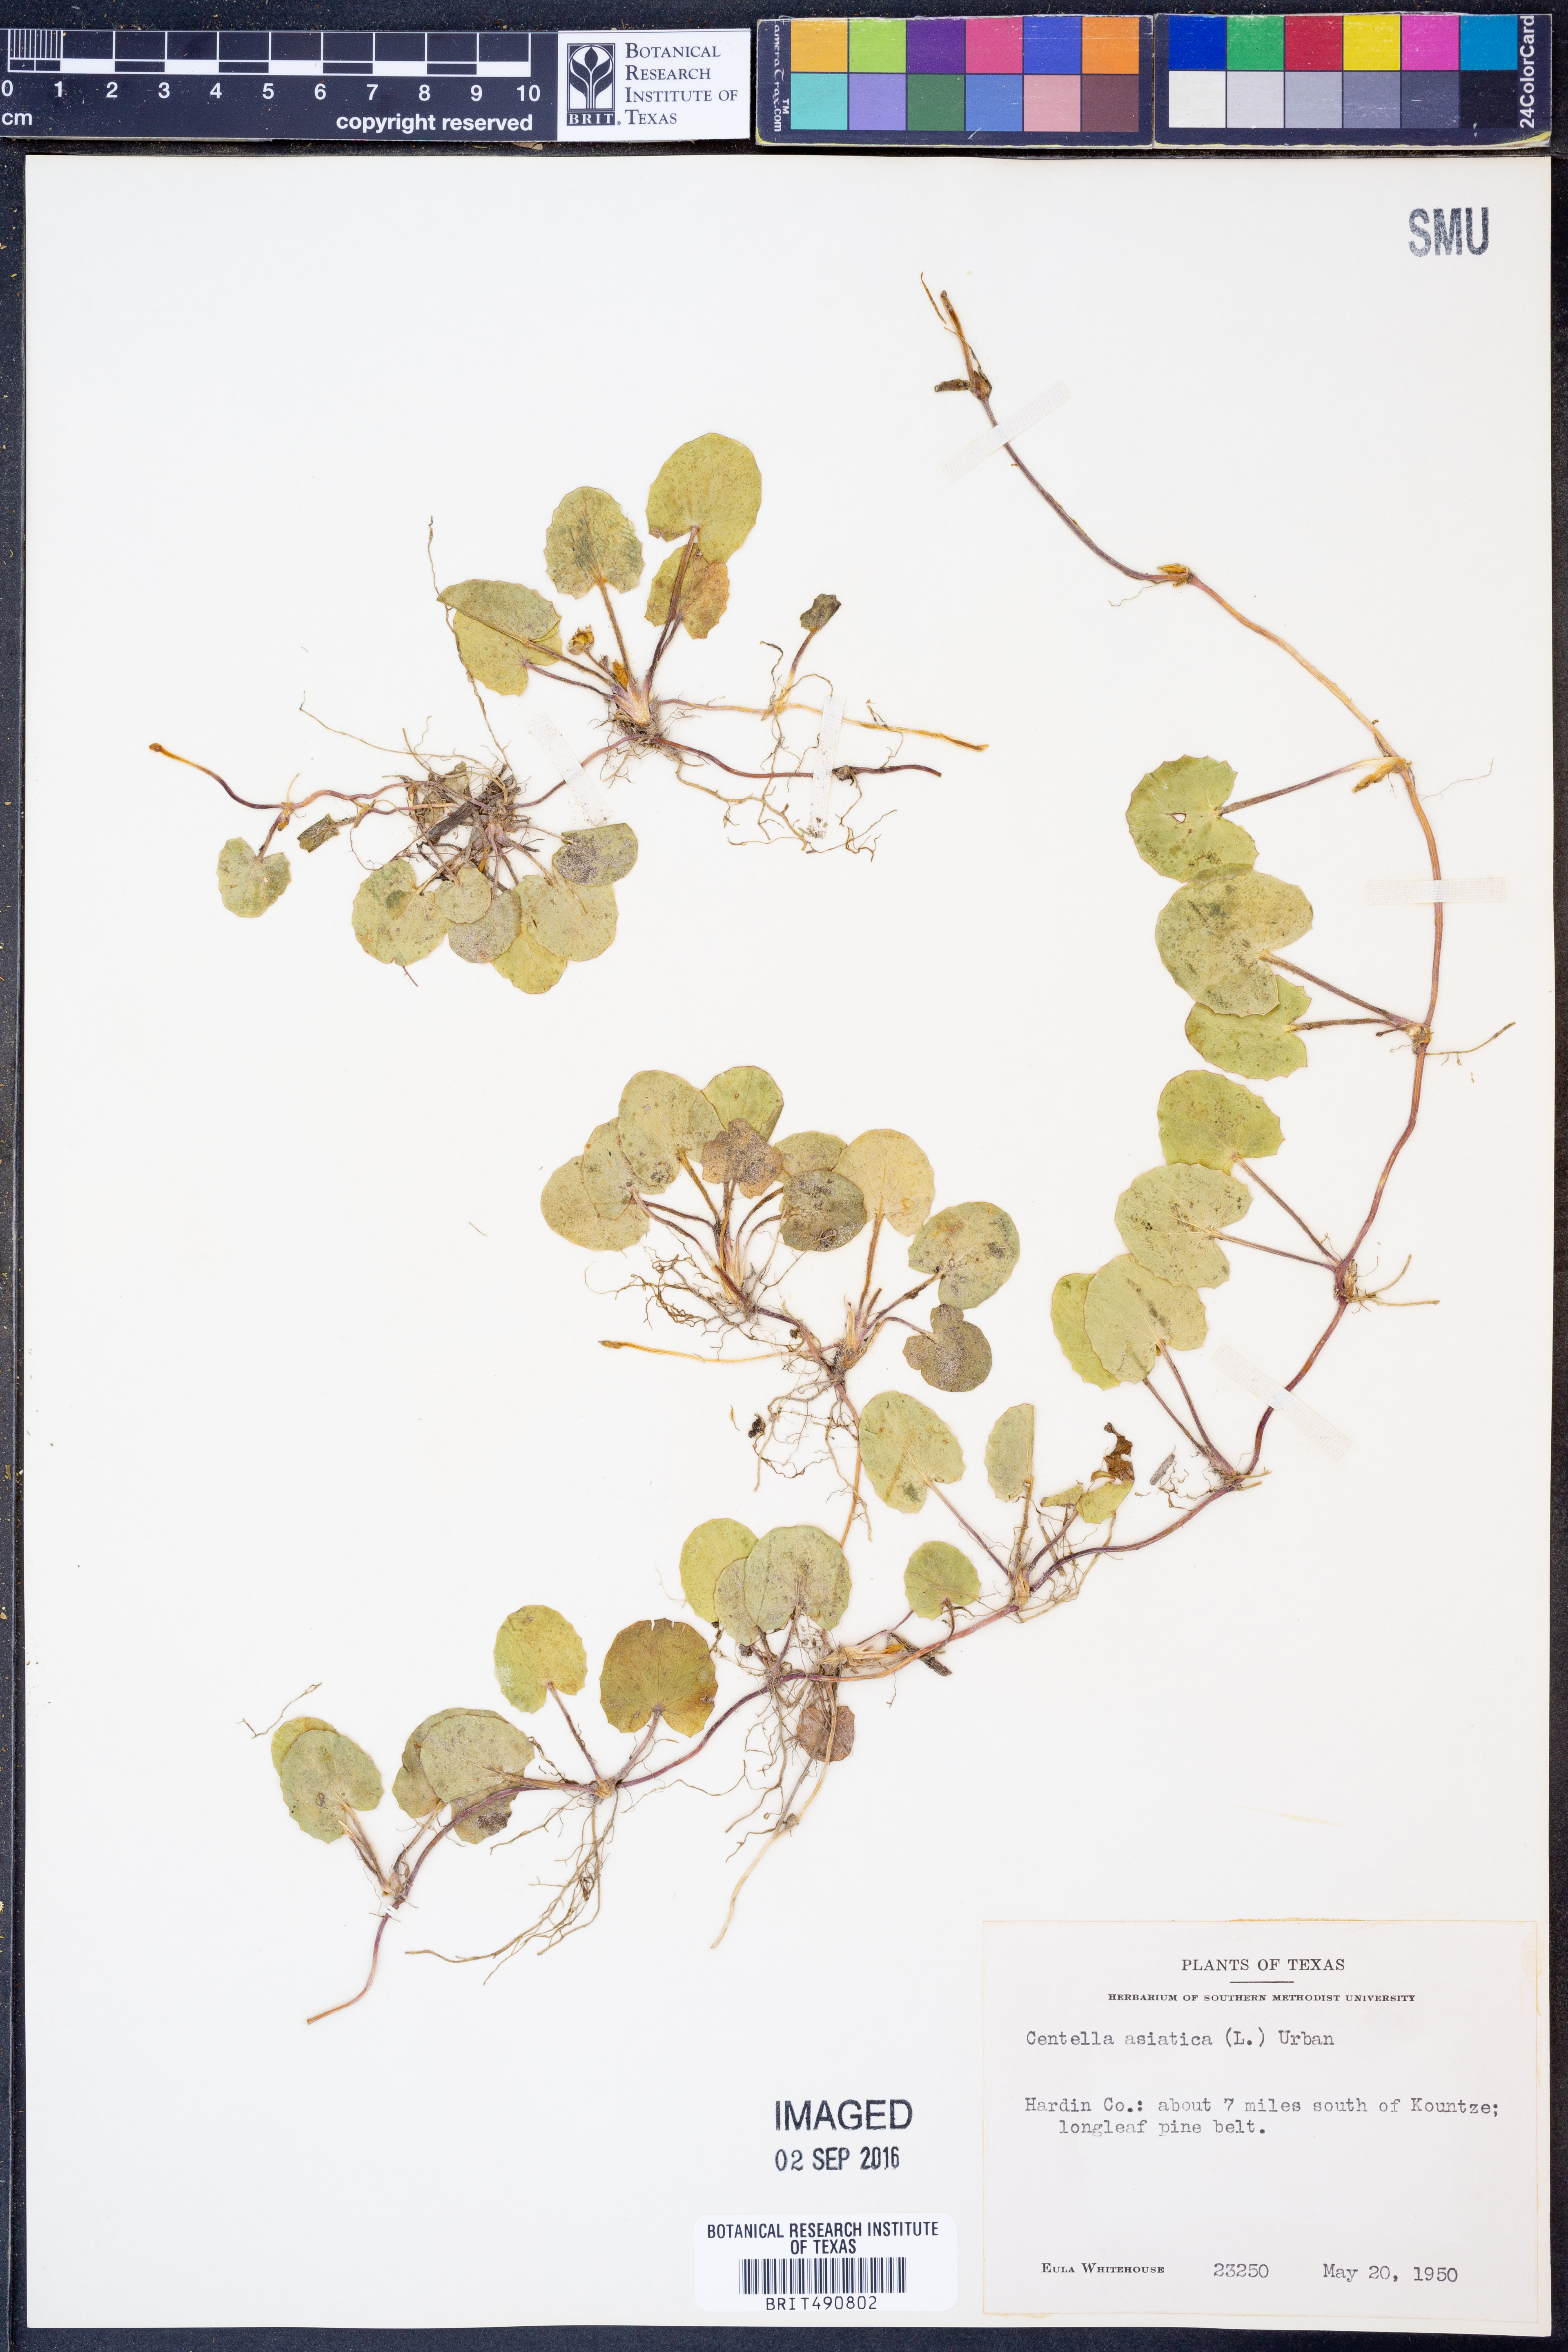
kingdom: Plantae
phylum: Tracheophyta
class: Magnoliopsida
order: Apiales
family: Apiaceae
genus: Centella
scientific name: Centella asiatica
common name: Spadeleaf
